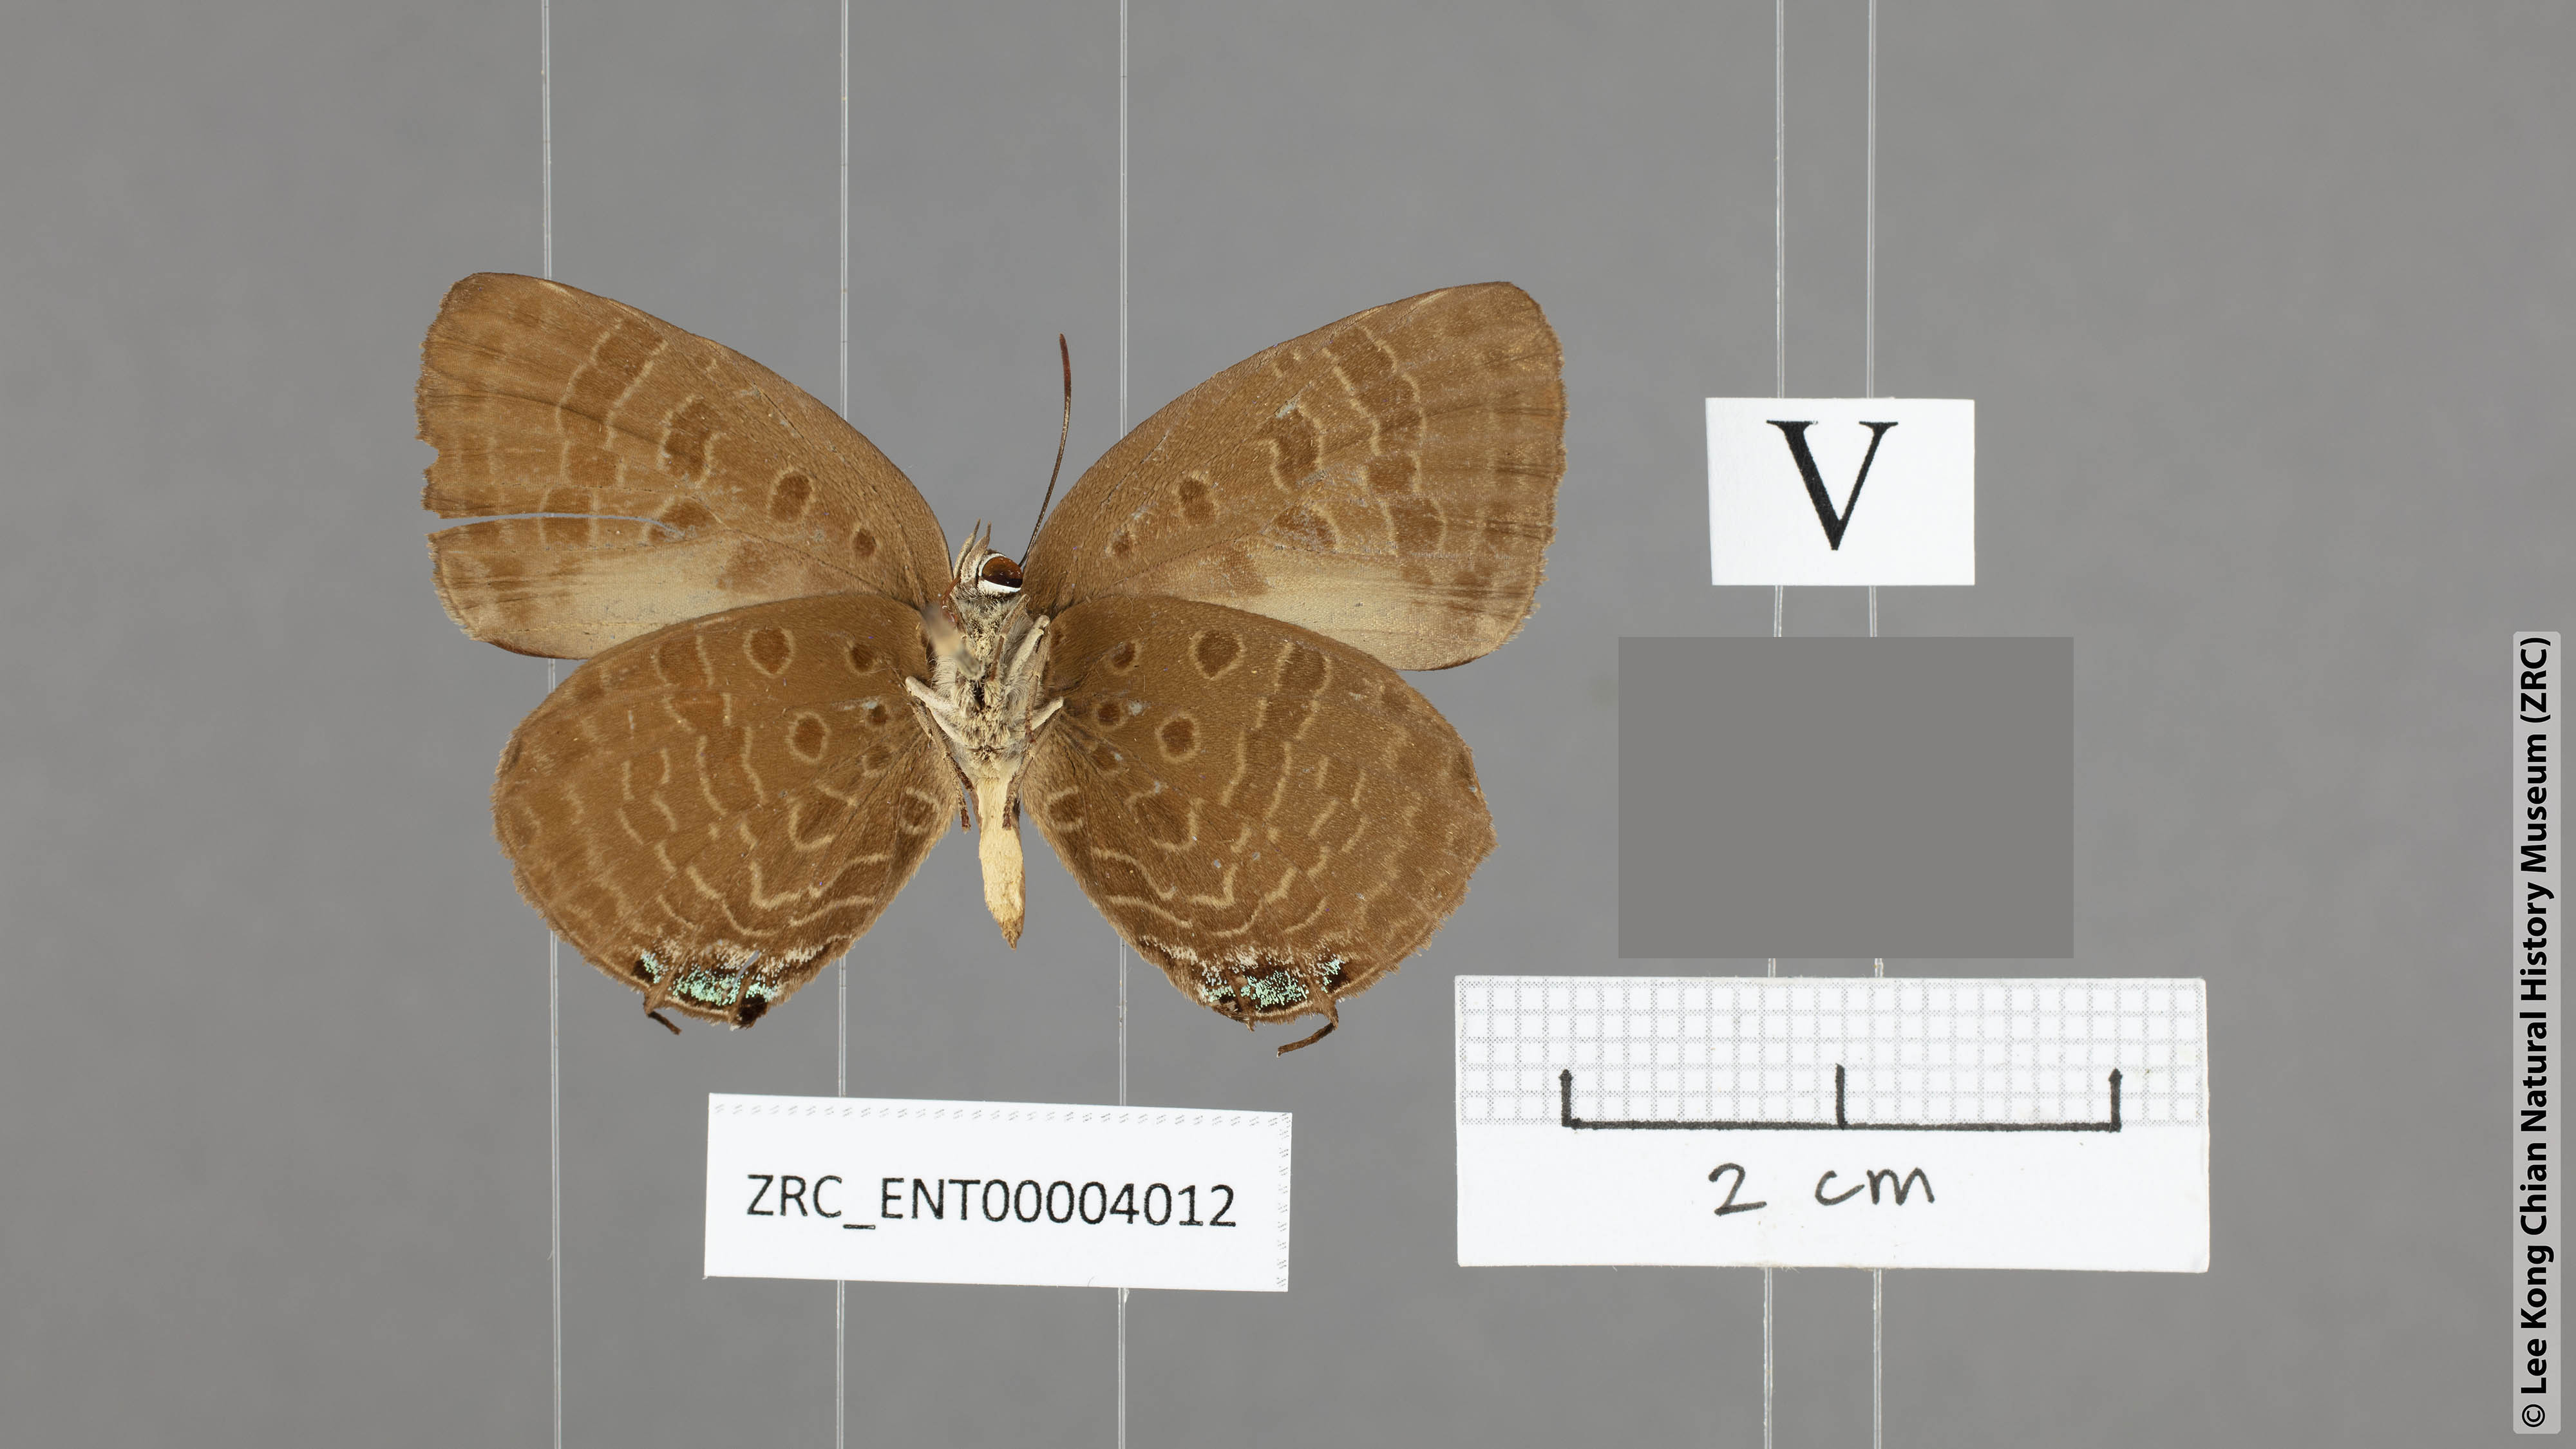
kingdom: Animalia
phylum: Arthropoda
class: Insecta
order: Lepidoptera
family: Lycaenidae
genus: Arhopala
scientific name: Arhopala normani
